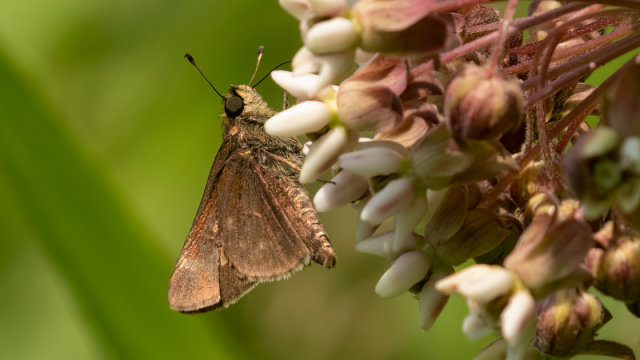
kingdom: Animalia
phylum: Arthropoda
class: Insecta
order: Lepidoptera
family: Hesperiidae
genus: Vernia
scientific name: Vernia verna
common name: Little Glassywing
